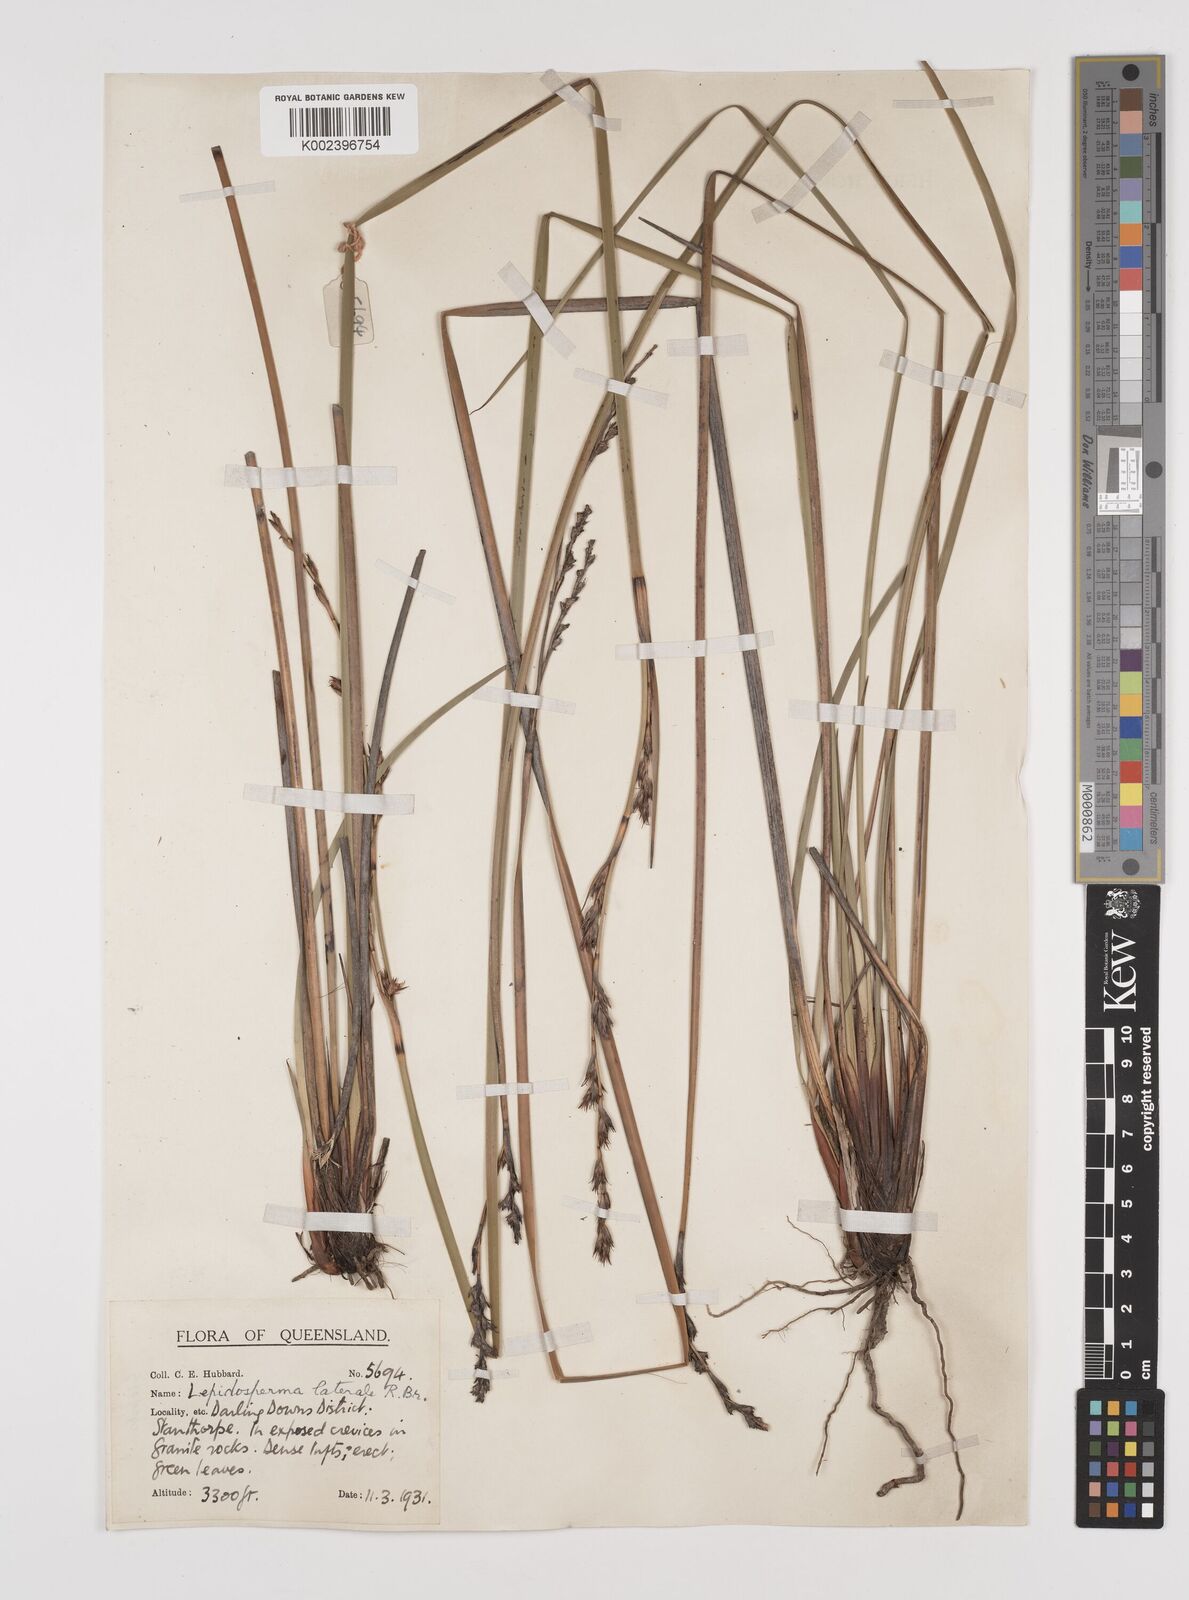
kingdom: Plantae
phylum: Tracheophyta
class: Liliopsida
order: Poales
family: Cyperaceae
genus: Lepidosperma
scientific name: Lepidosperma laterale
